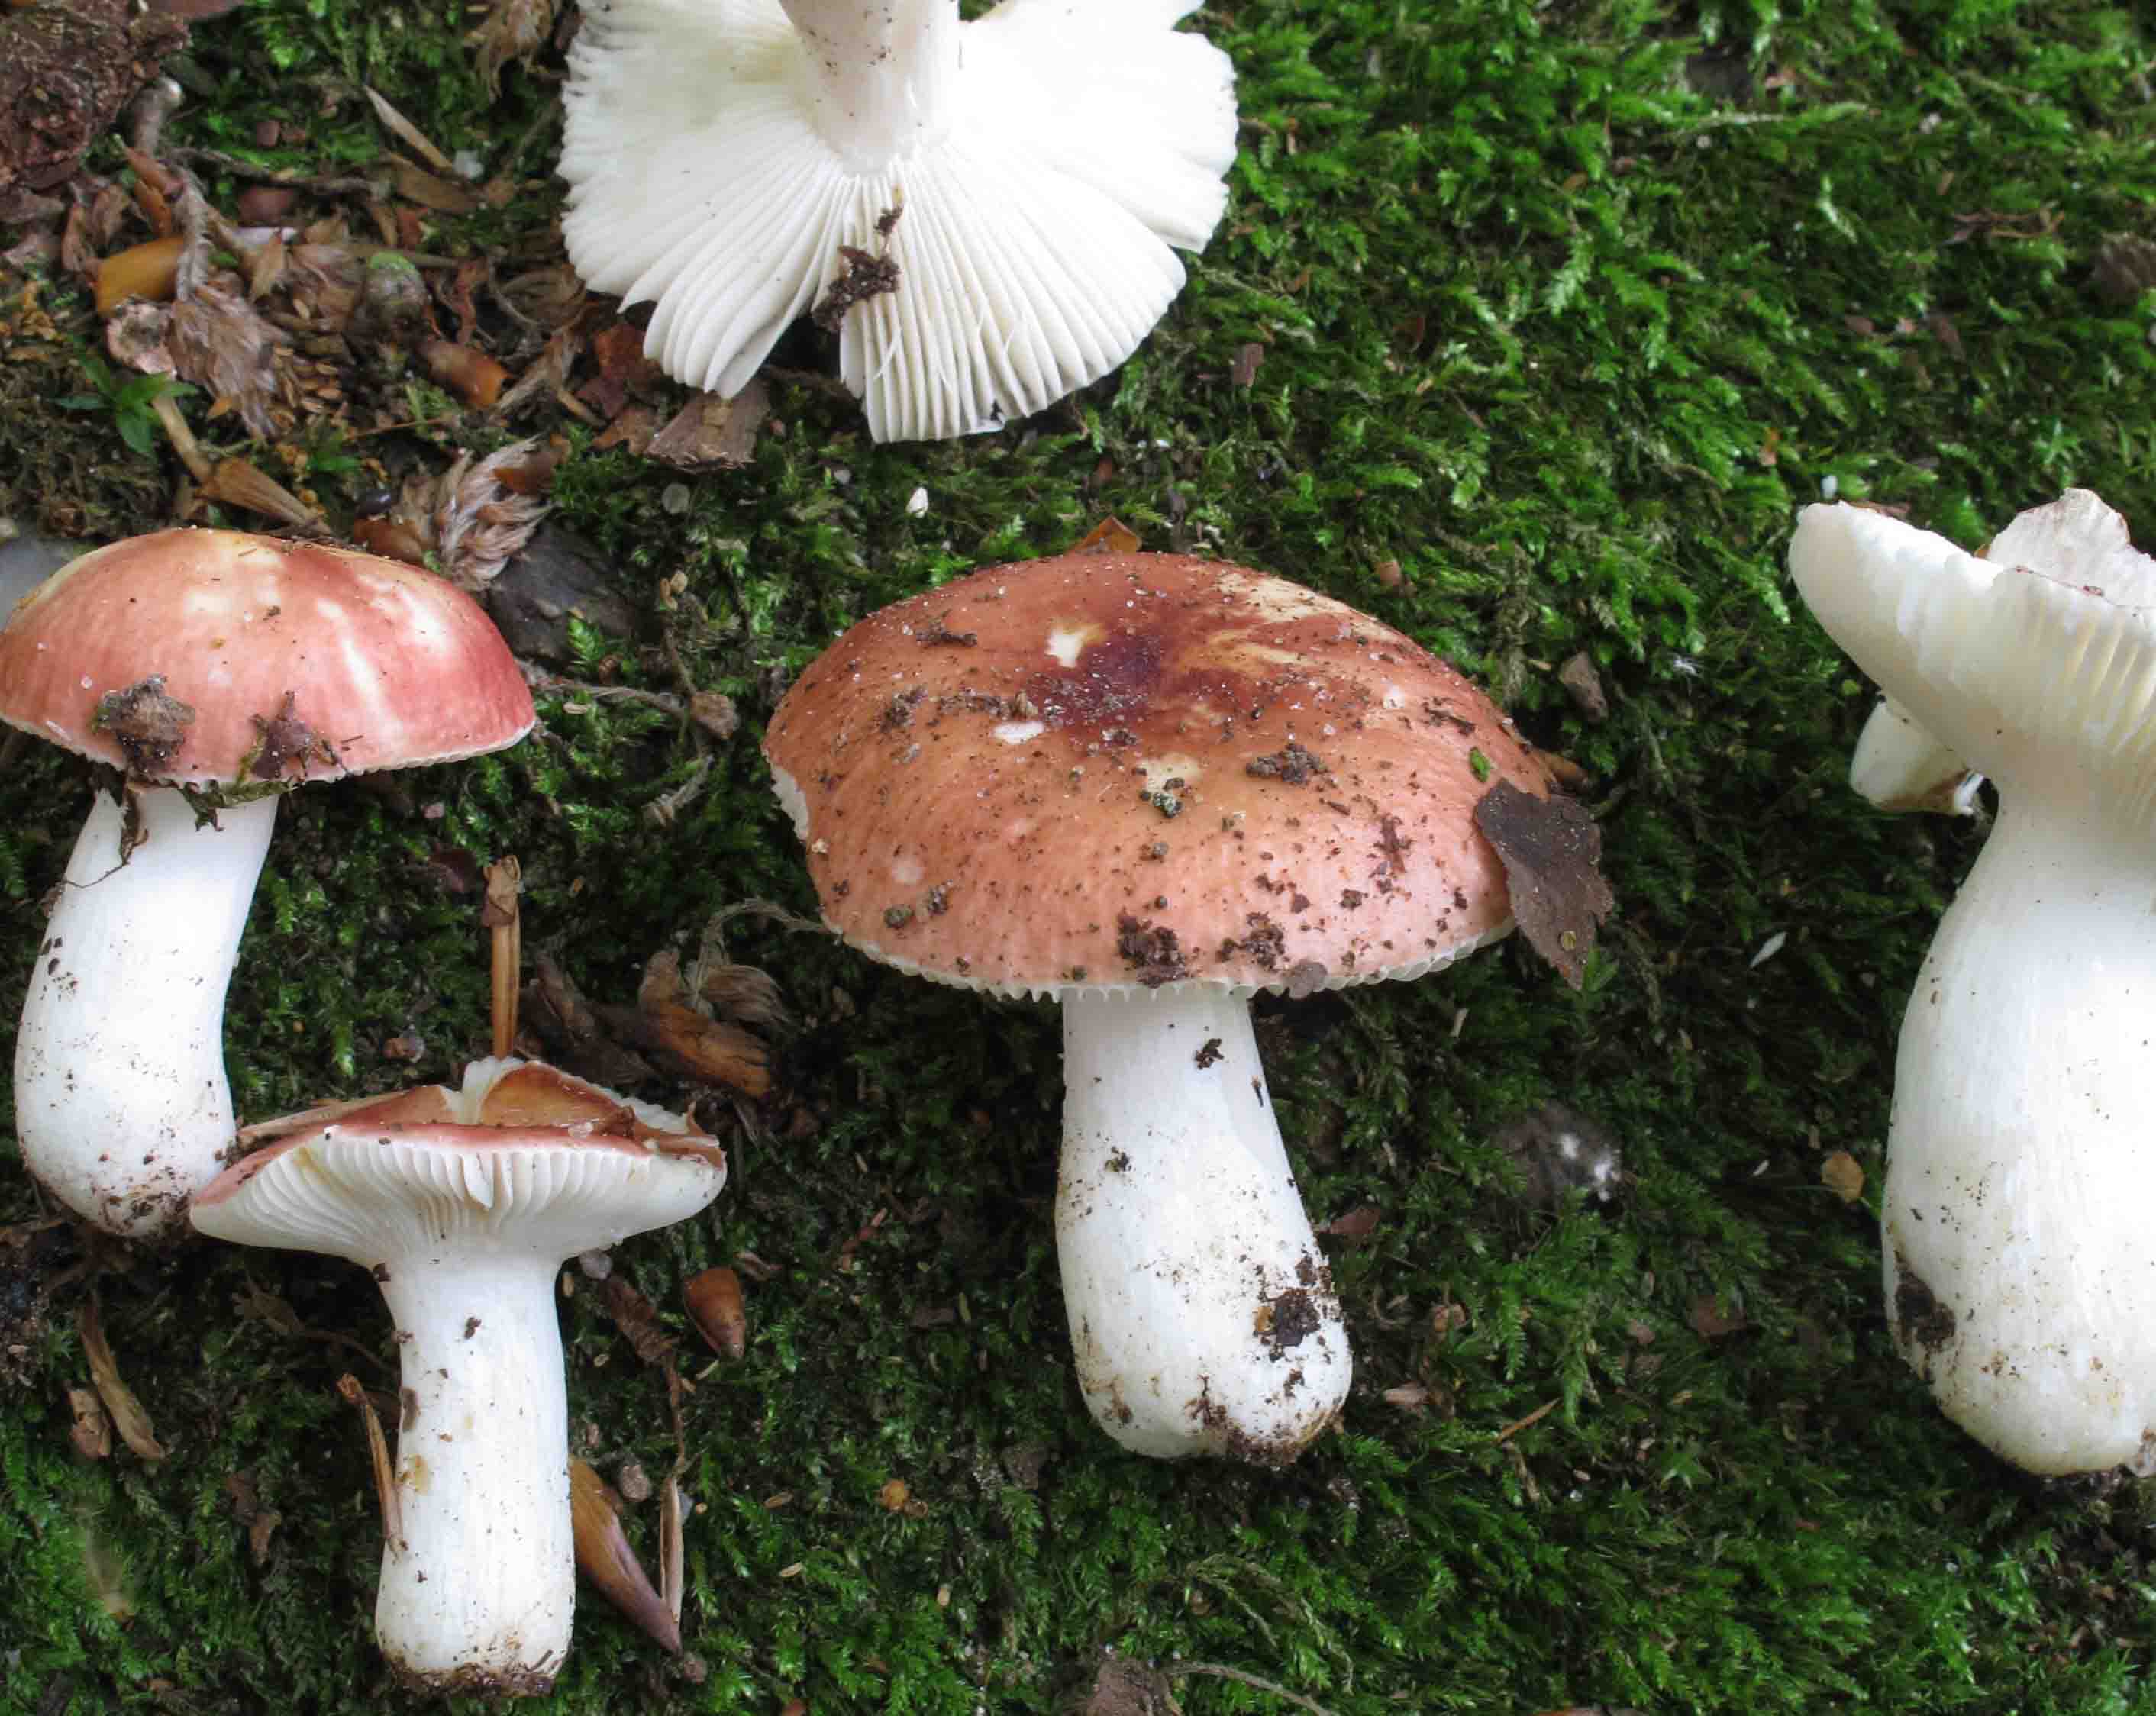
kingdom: Fungi
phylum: Basidiomycota
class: Agaricomycetes
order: Russulales
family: Russulaceae
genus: Russula
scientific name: Russula puellula
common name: gulnende skørhat
